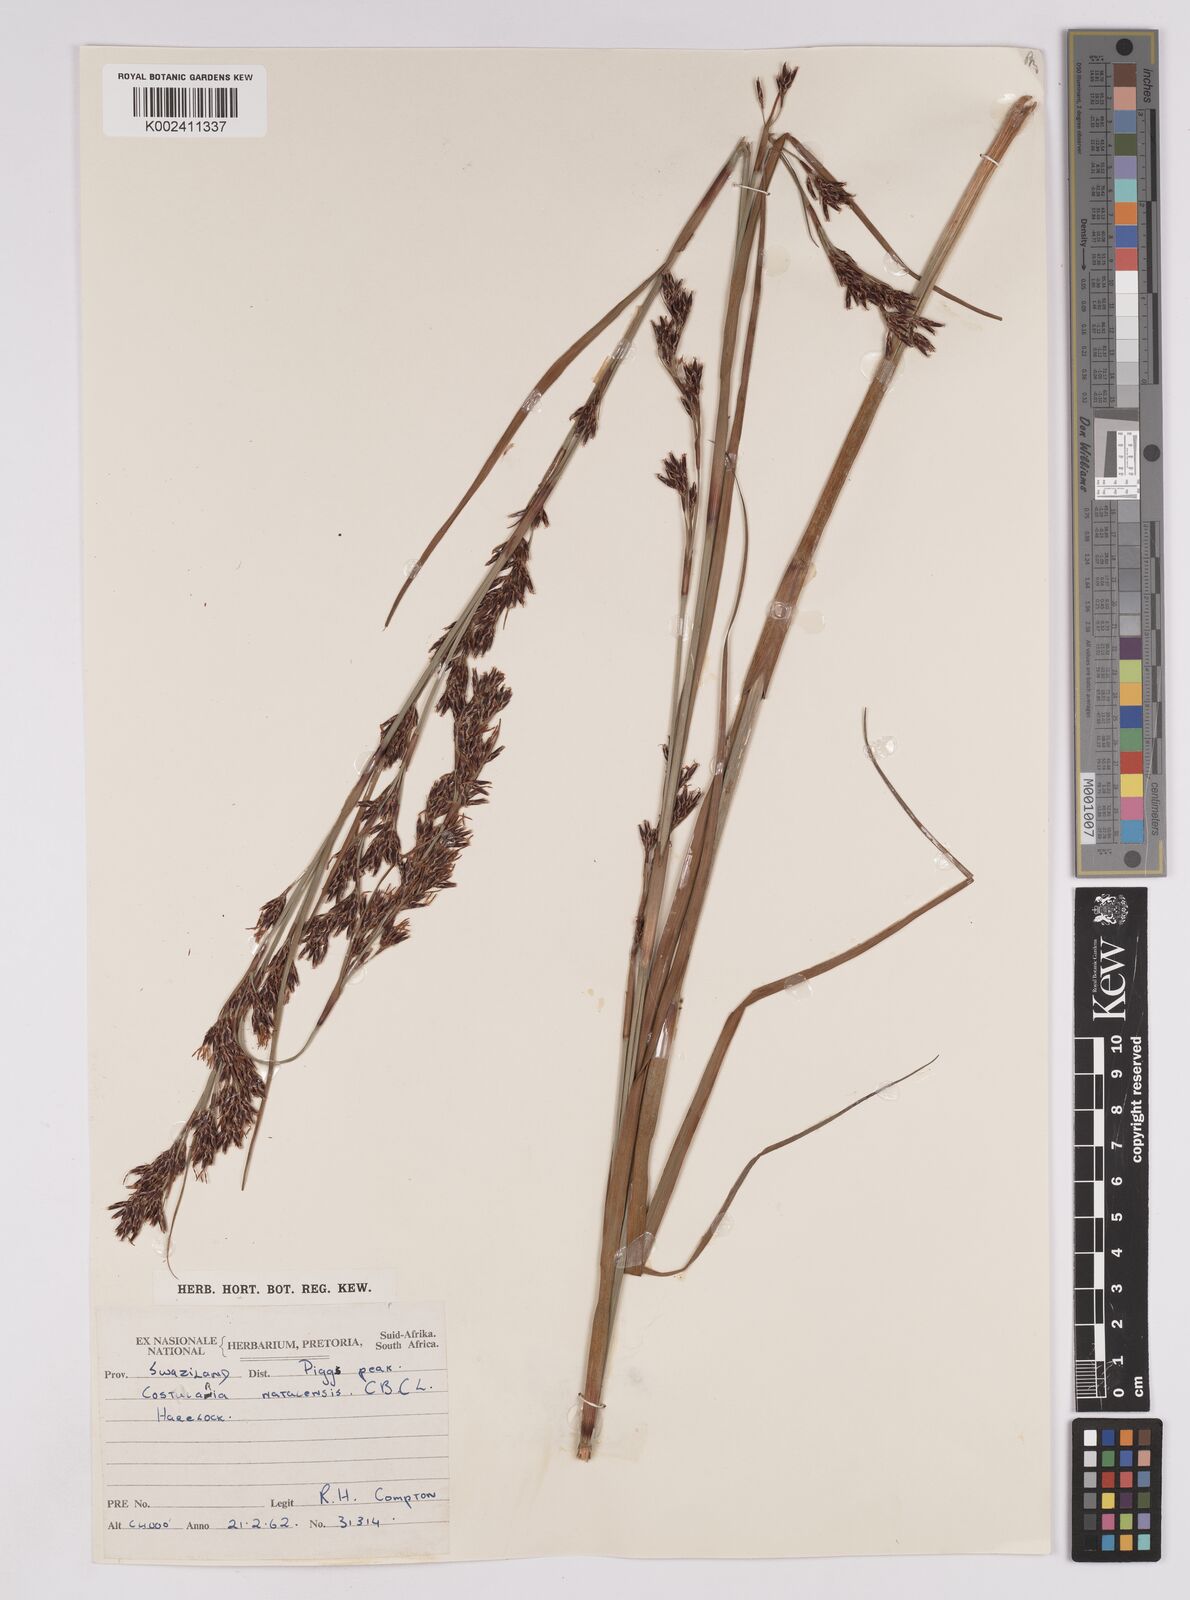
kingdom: Plantae
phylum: Tracheophyta
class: Liliopsida
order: Poales
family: Cyperaceae
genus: Costularia
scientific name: Costularia natalensis
